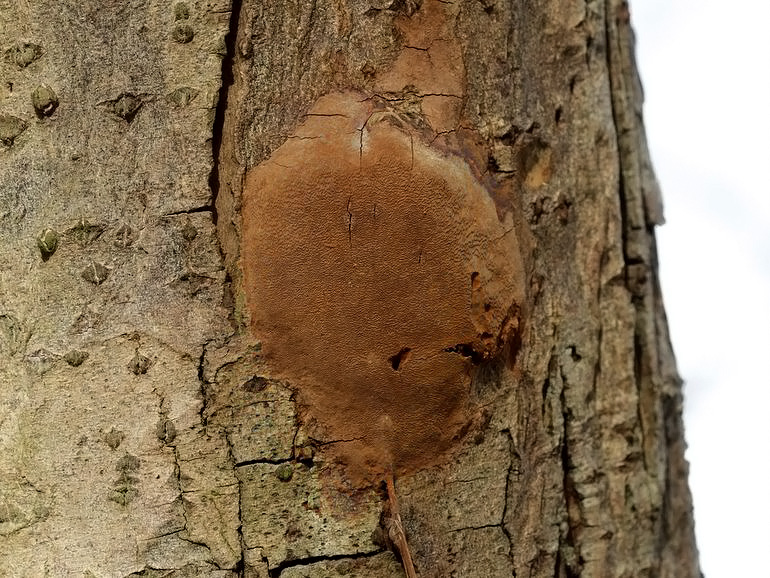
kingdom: Fungi
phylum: Basidiomycota
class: Agaricomycetes
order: Hymenochaetales
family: Hymenochaetaceae
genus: Fuscoporia
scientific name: Fuscoporia ferrea
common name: skorpe-ildporesvamp
